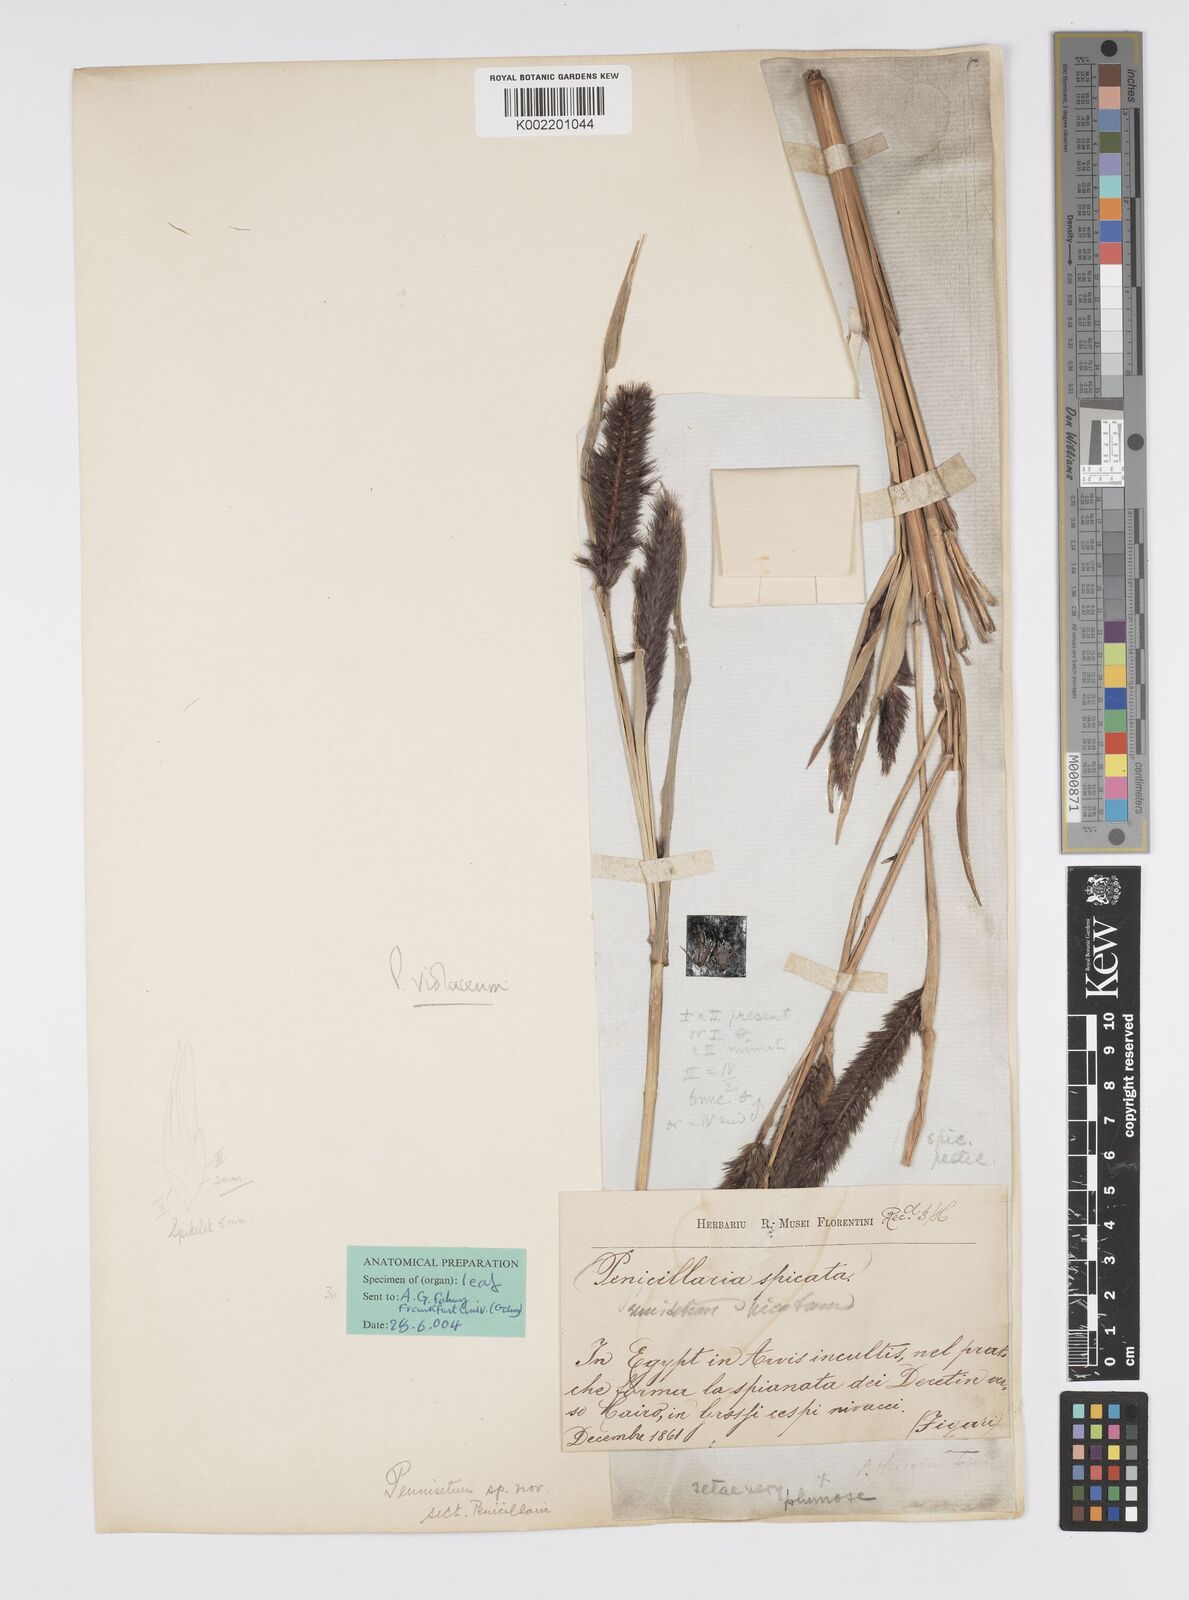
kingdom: Plantae
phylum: Tracheophyta
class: Liliopsida
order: Poales
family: Poaceae
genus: Cenchrus
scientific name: Cenchrus violaceus
